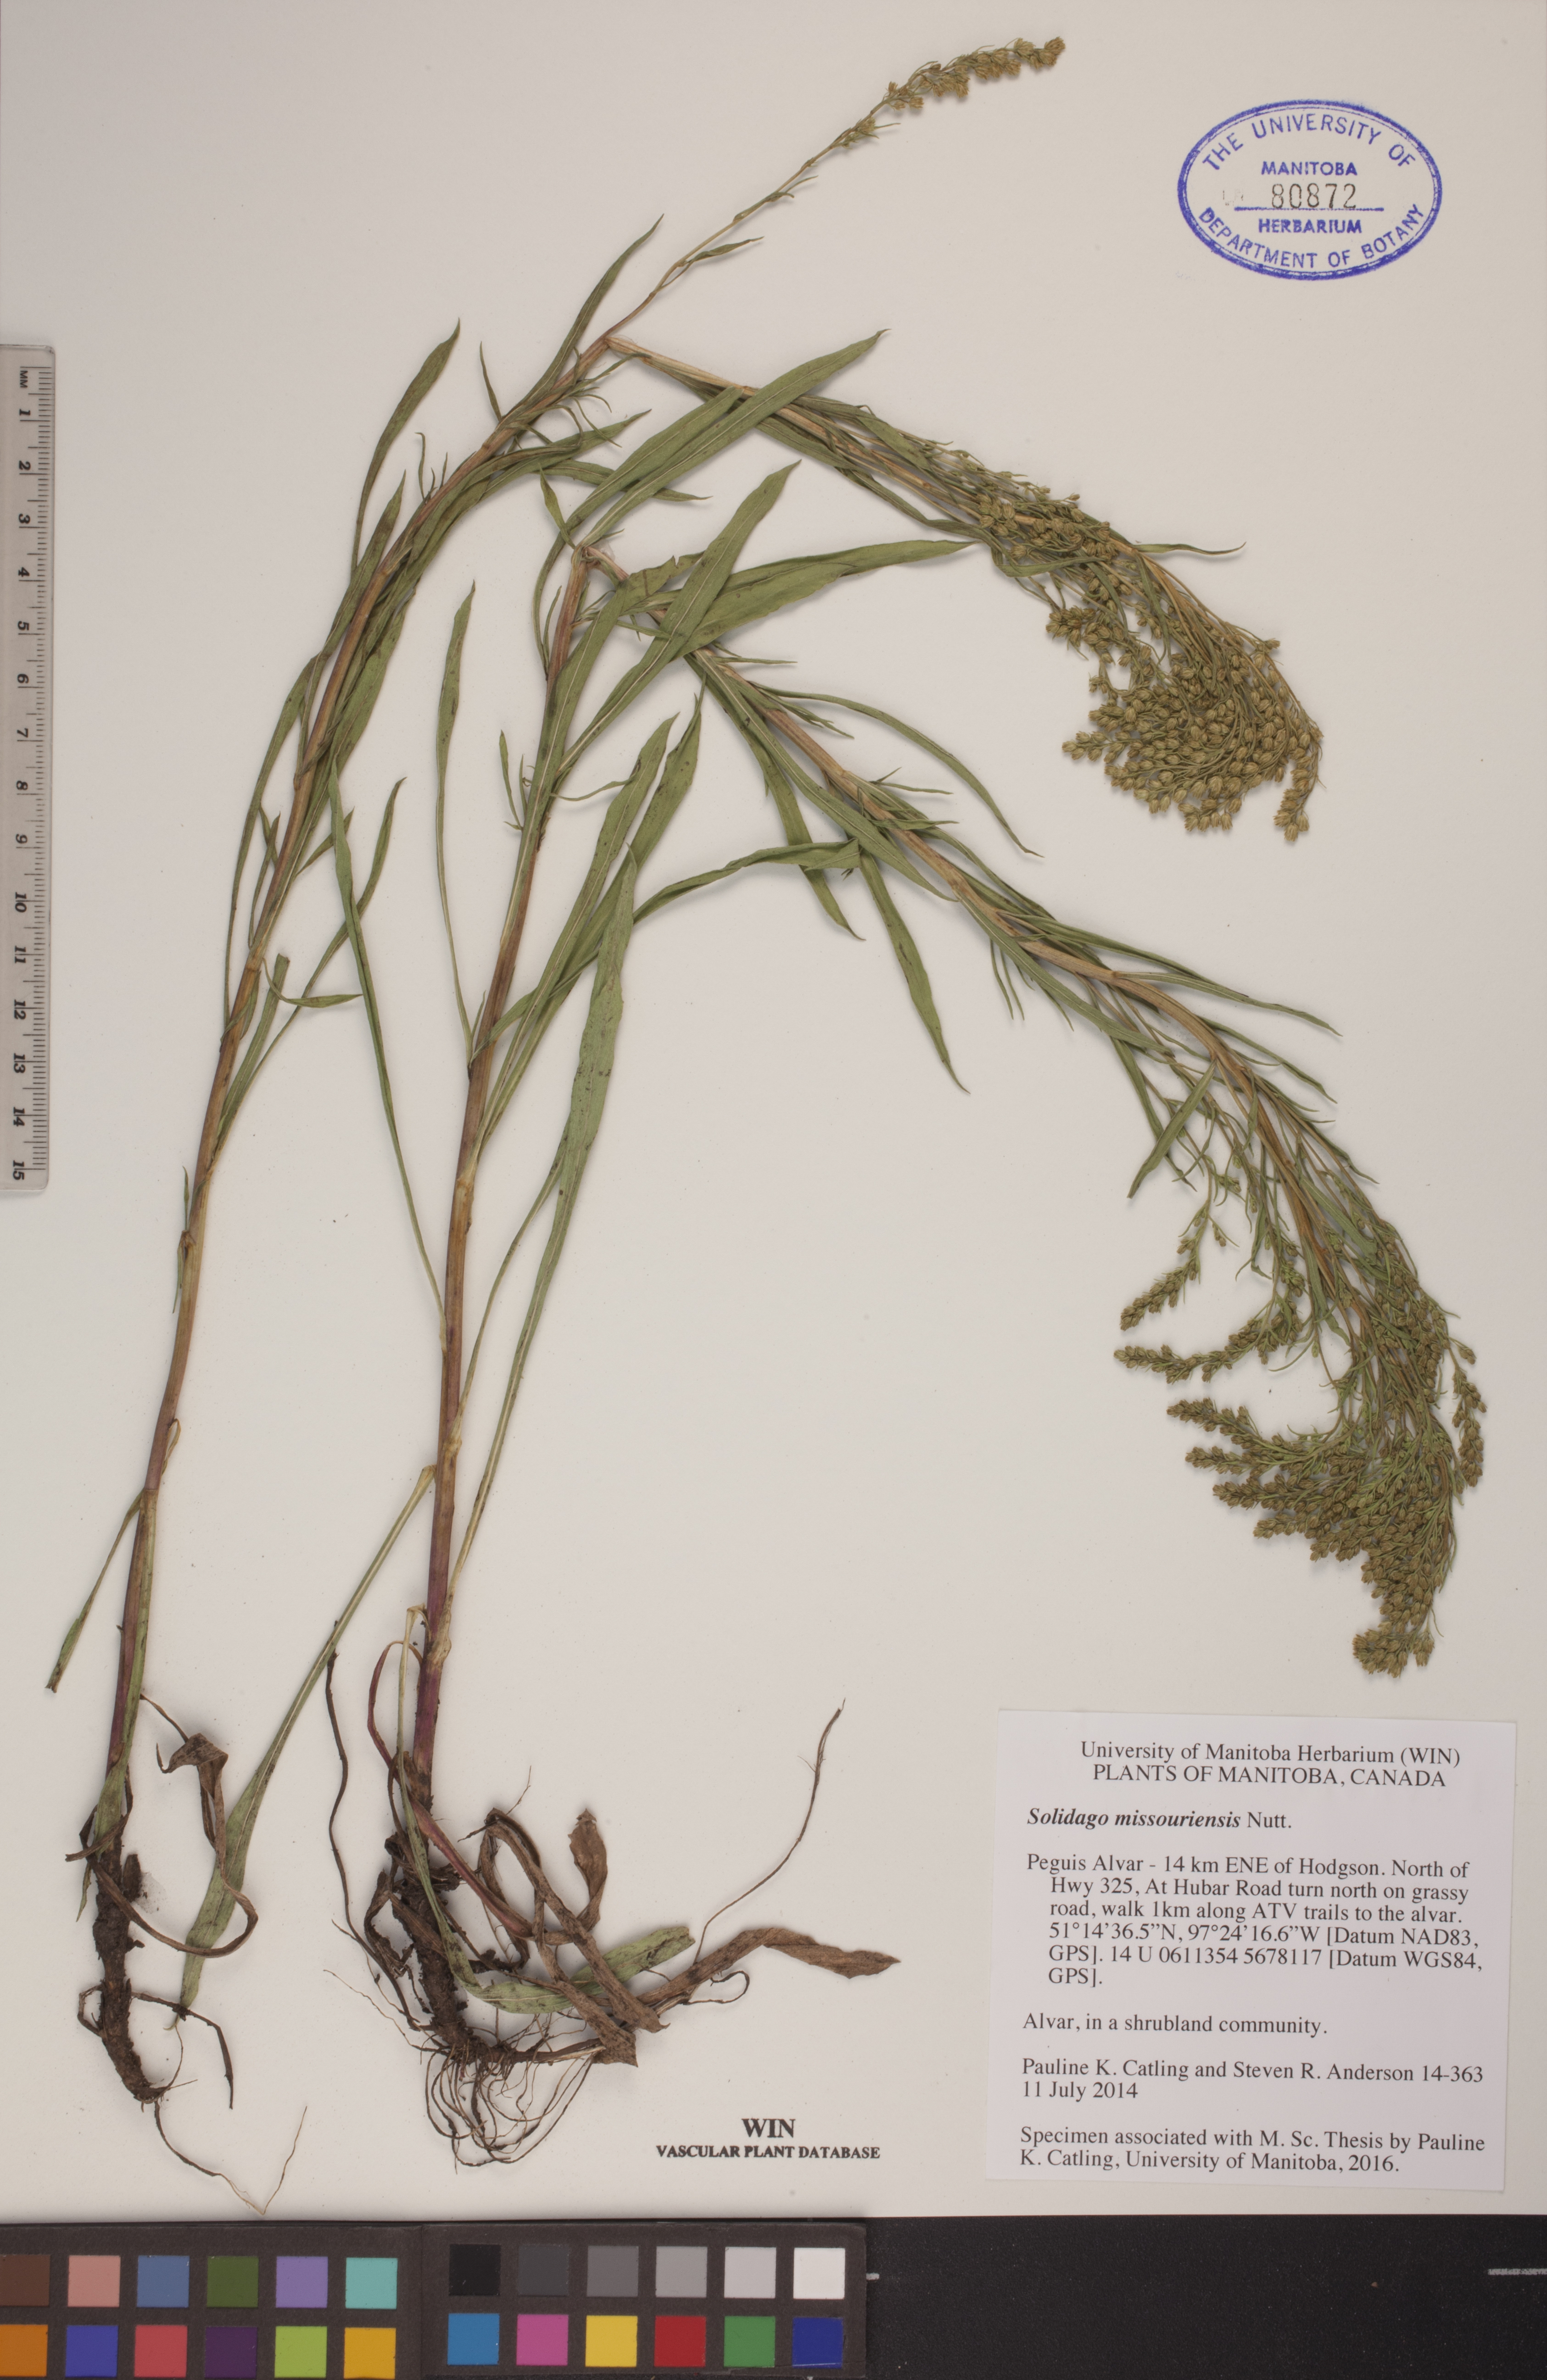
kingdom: Plantae
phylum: Tracheophyta
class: Magnoliopsida
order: Asterales
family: Asteraceae
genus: Solidago
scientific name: Solidago missouriensis
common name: Prairie goldenrod
